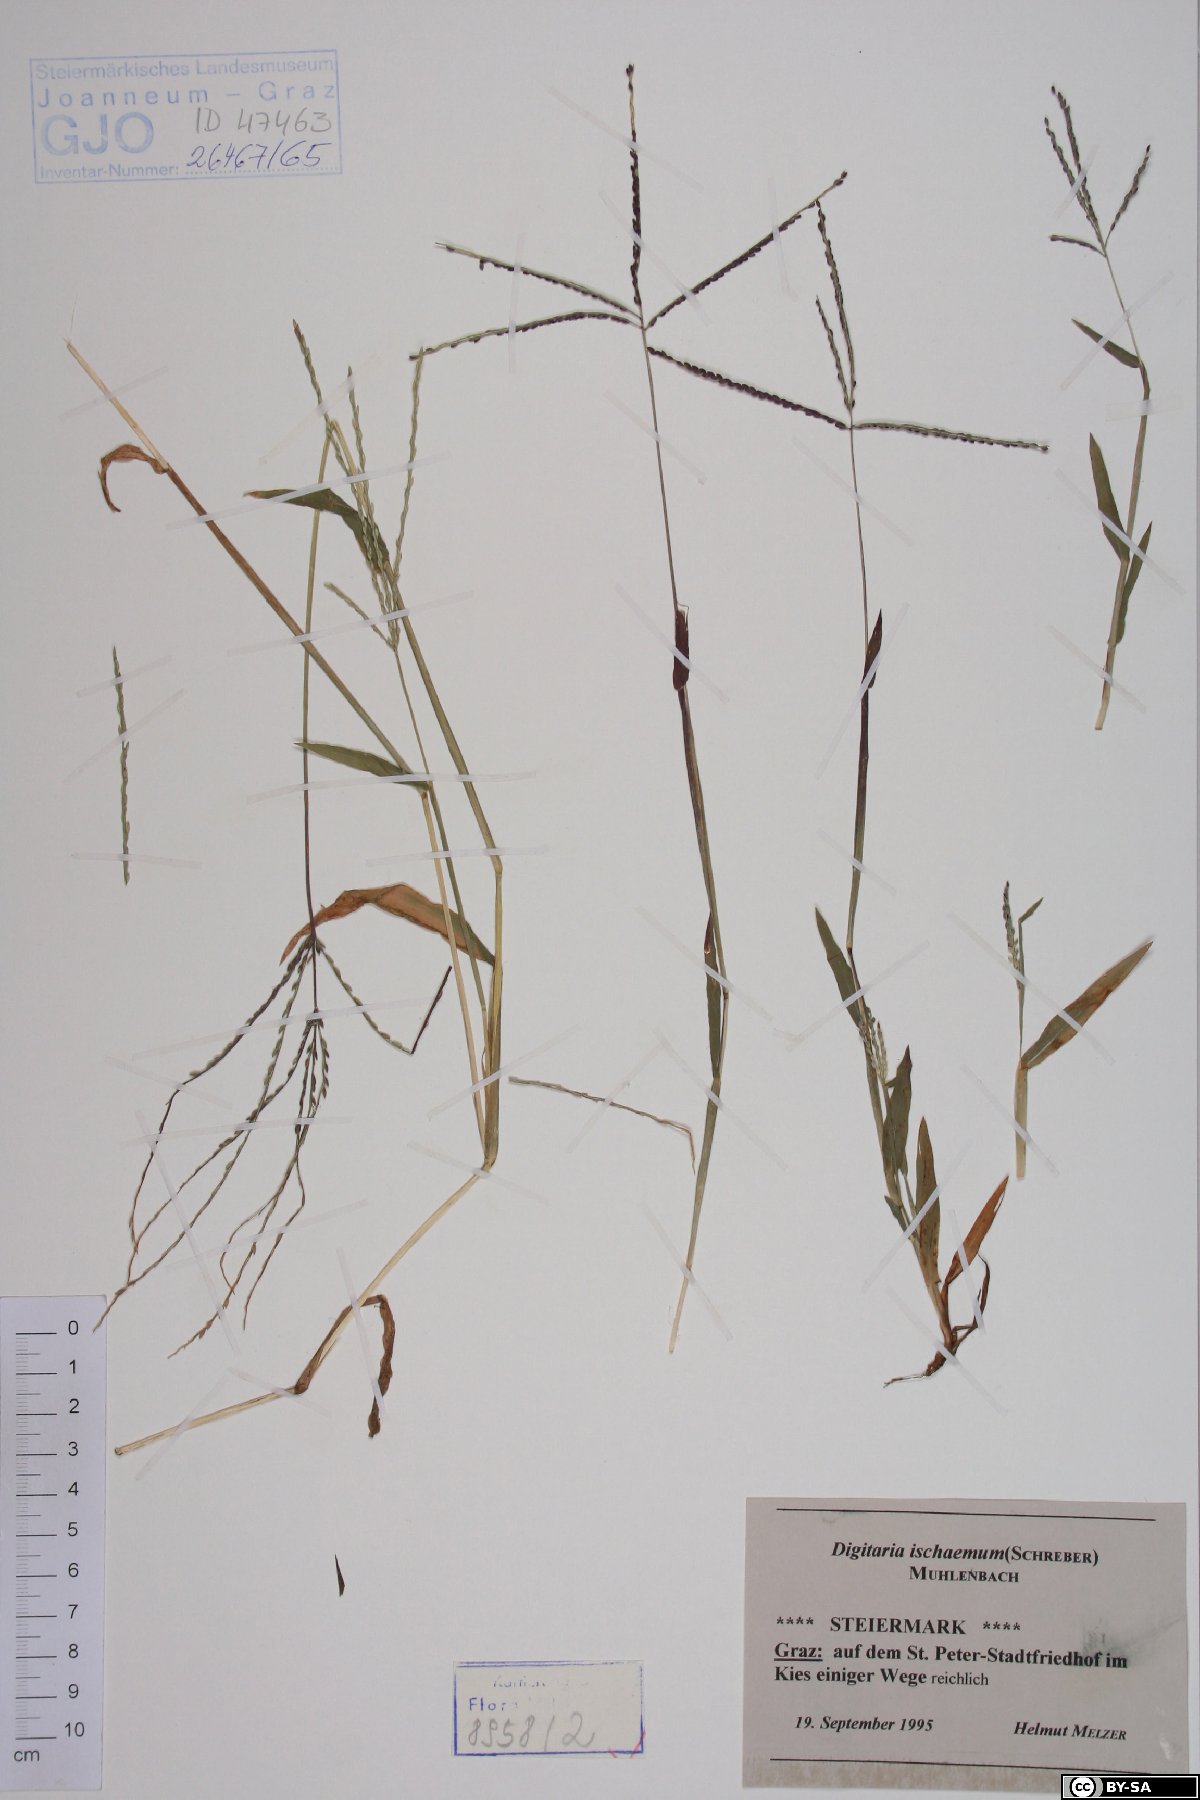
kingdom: Plantae
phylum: Tracheophyta
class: Liliopsida
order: Poales
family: Poaceae
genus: Digitaria
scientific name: Digitaria ischaemum
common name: Smooth crabgrass
